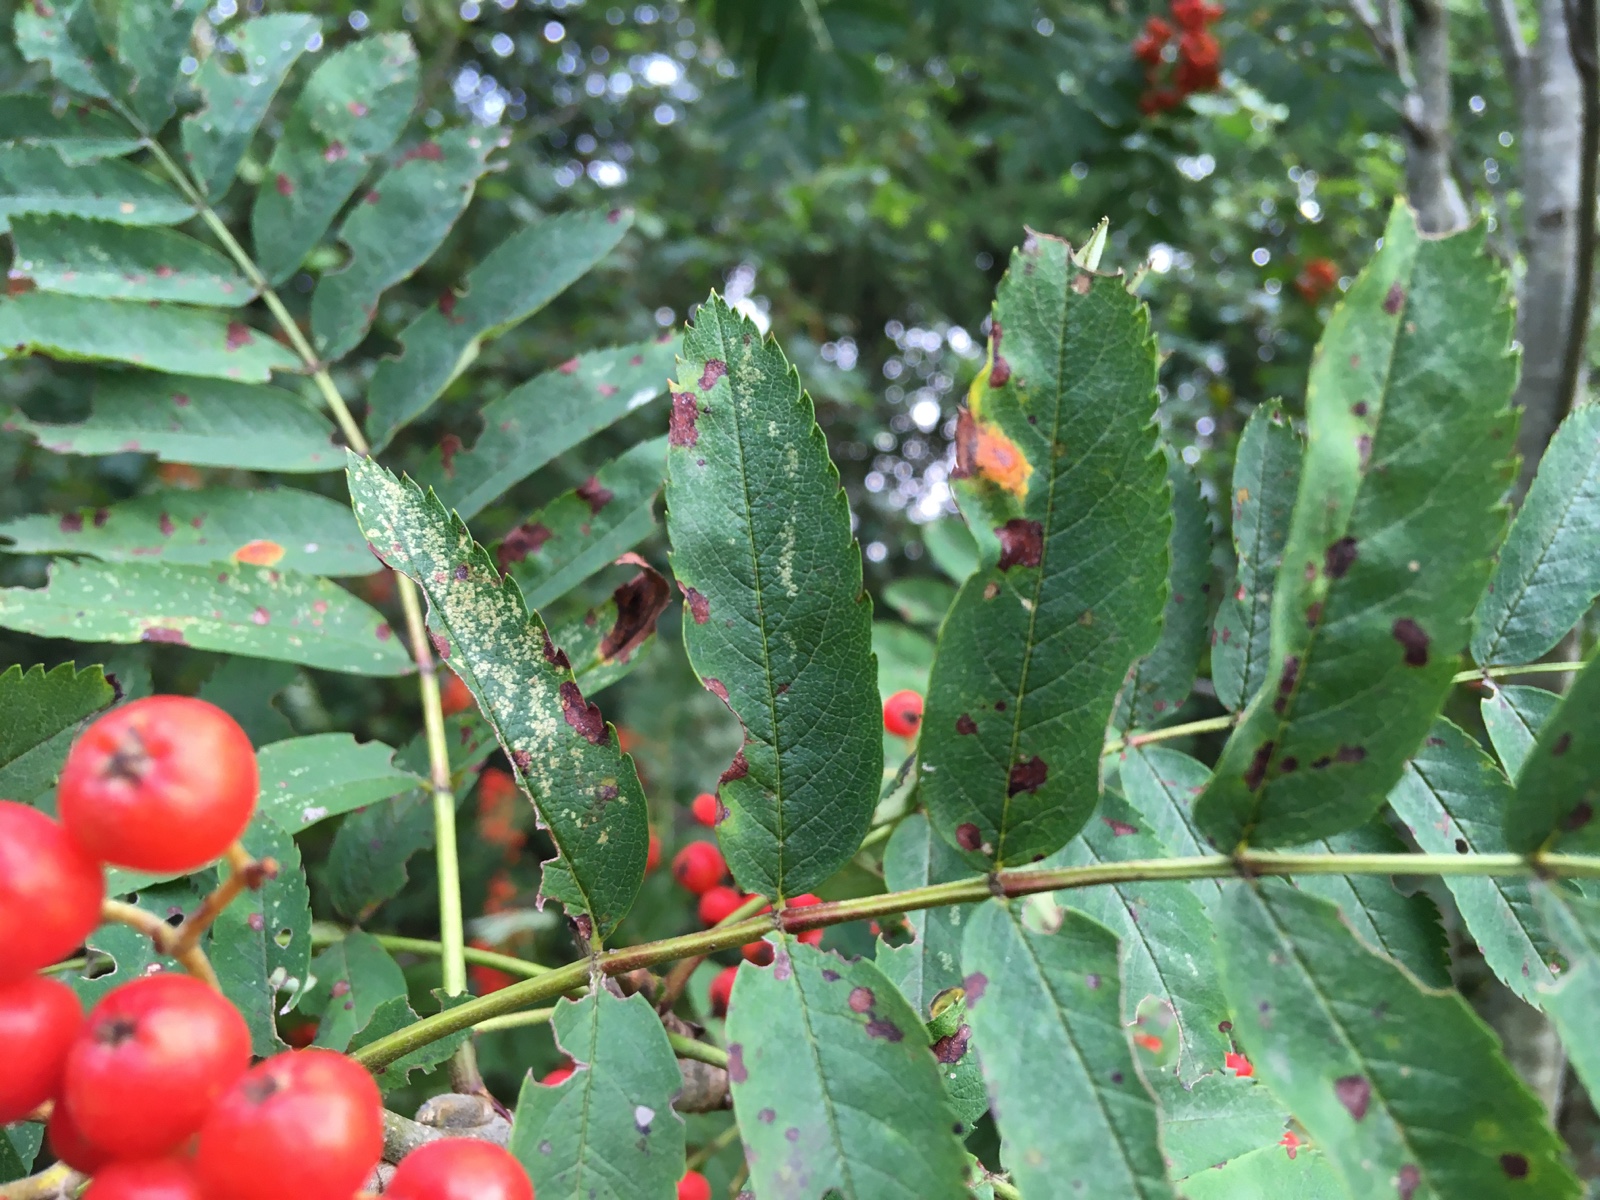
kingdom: Fungi
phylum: Basidiomycota
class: Pucciniomycetes
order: Pucciniales
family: Gymnosporangiaceae
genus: Gymnosporangium
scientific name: Gymnosporangium cornutum
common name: rønnehorn-bævrerust
